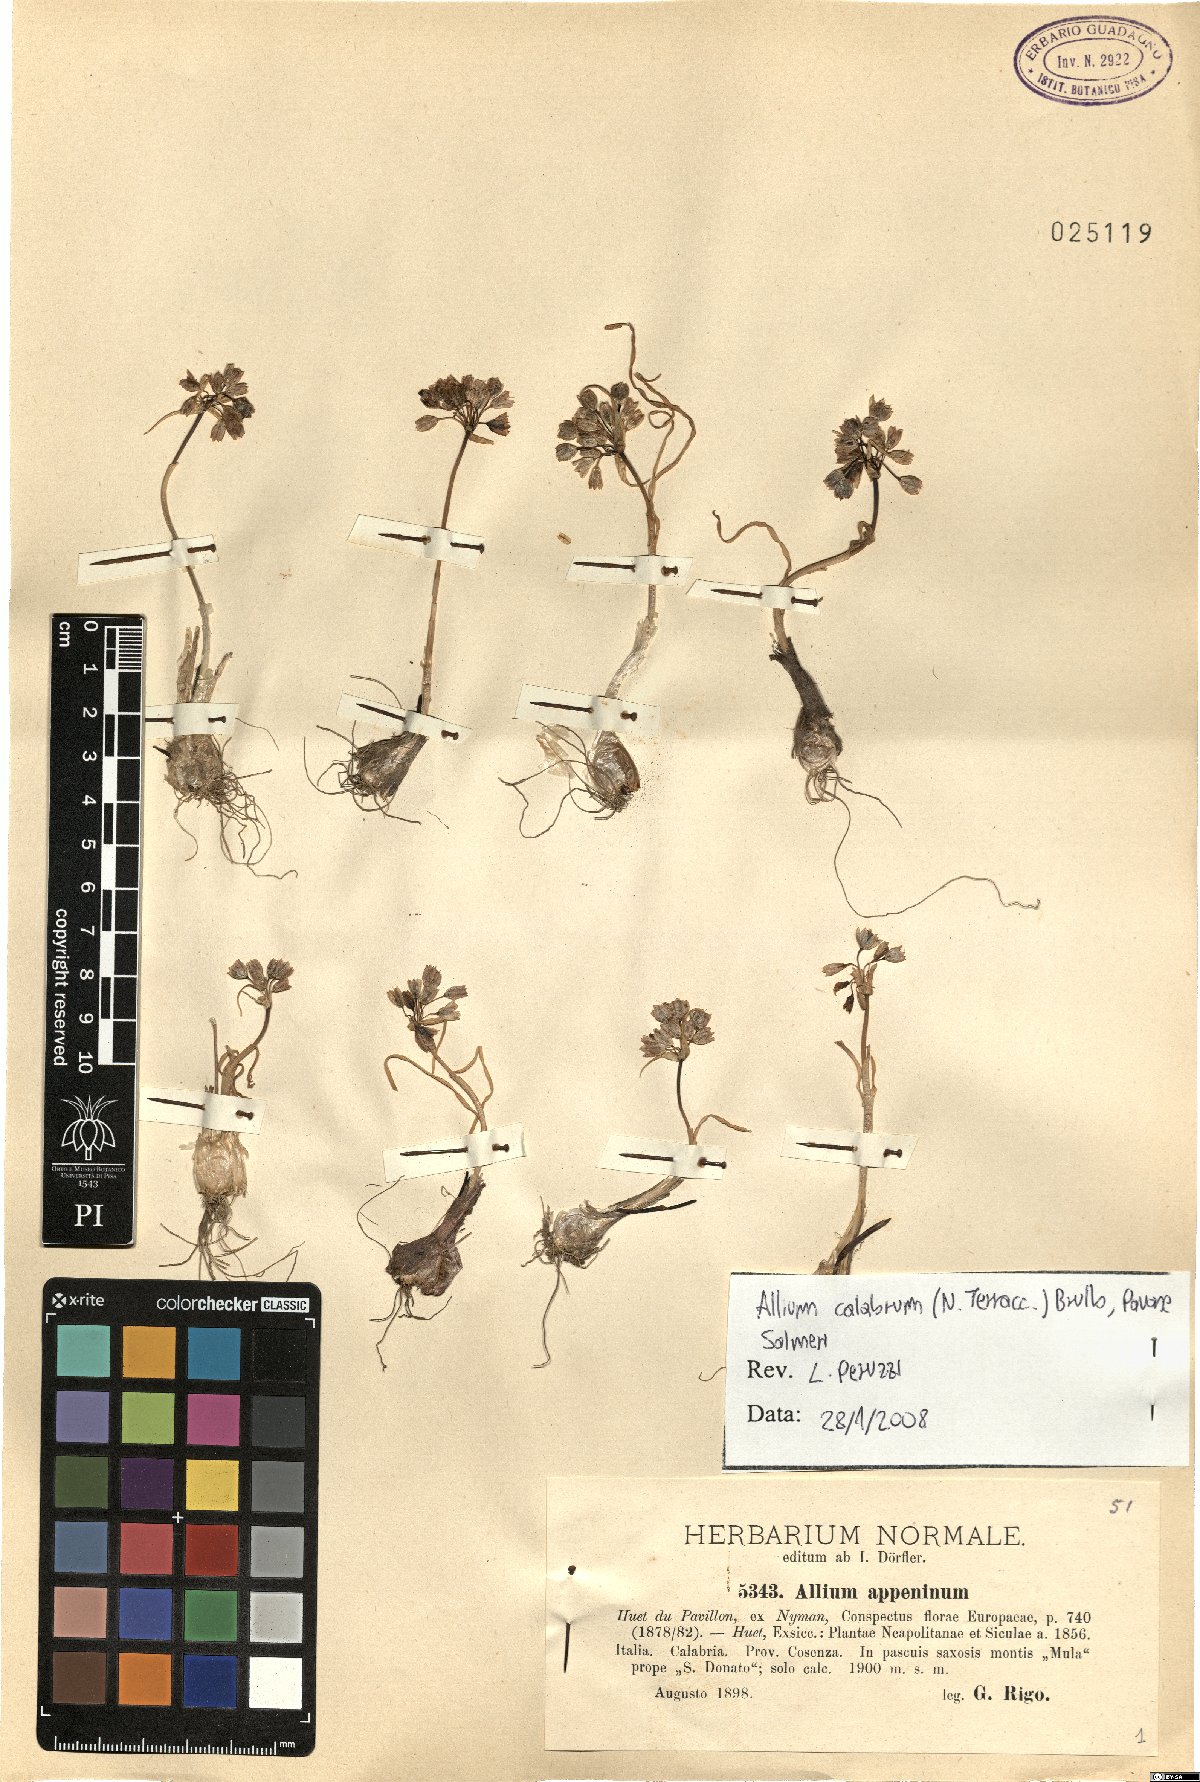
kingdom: Plantae
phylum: Tracheophyta
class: Liliopsida
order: Asparagales
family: Amaryllidaceae
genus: Allium
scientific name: Allium calabrum
